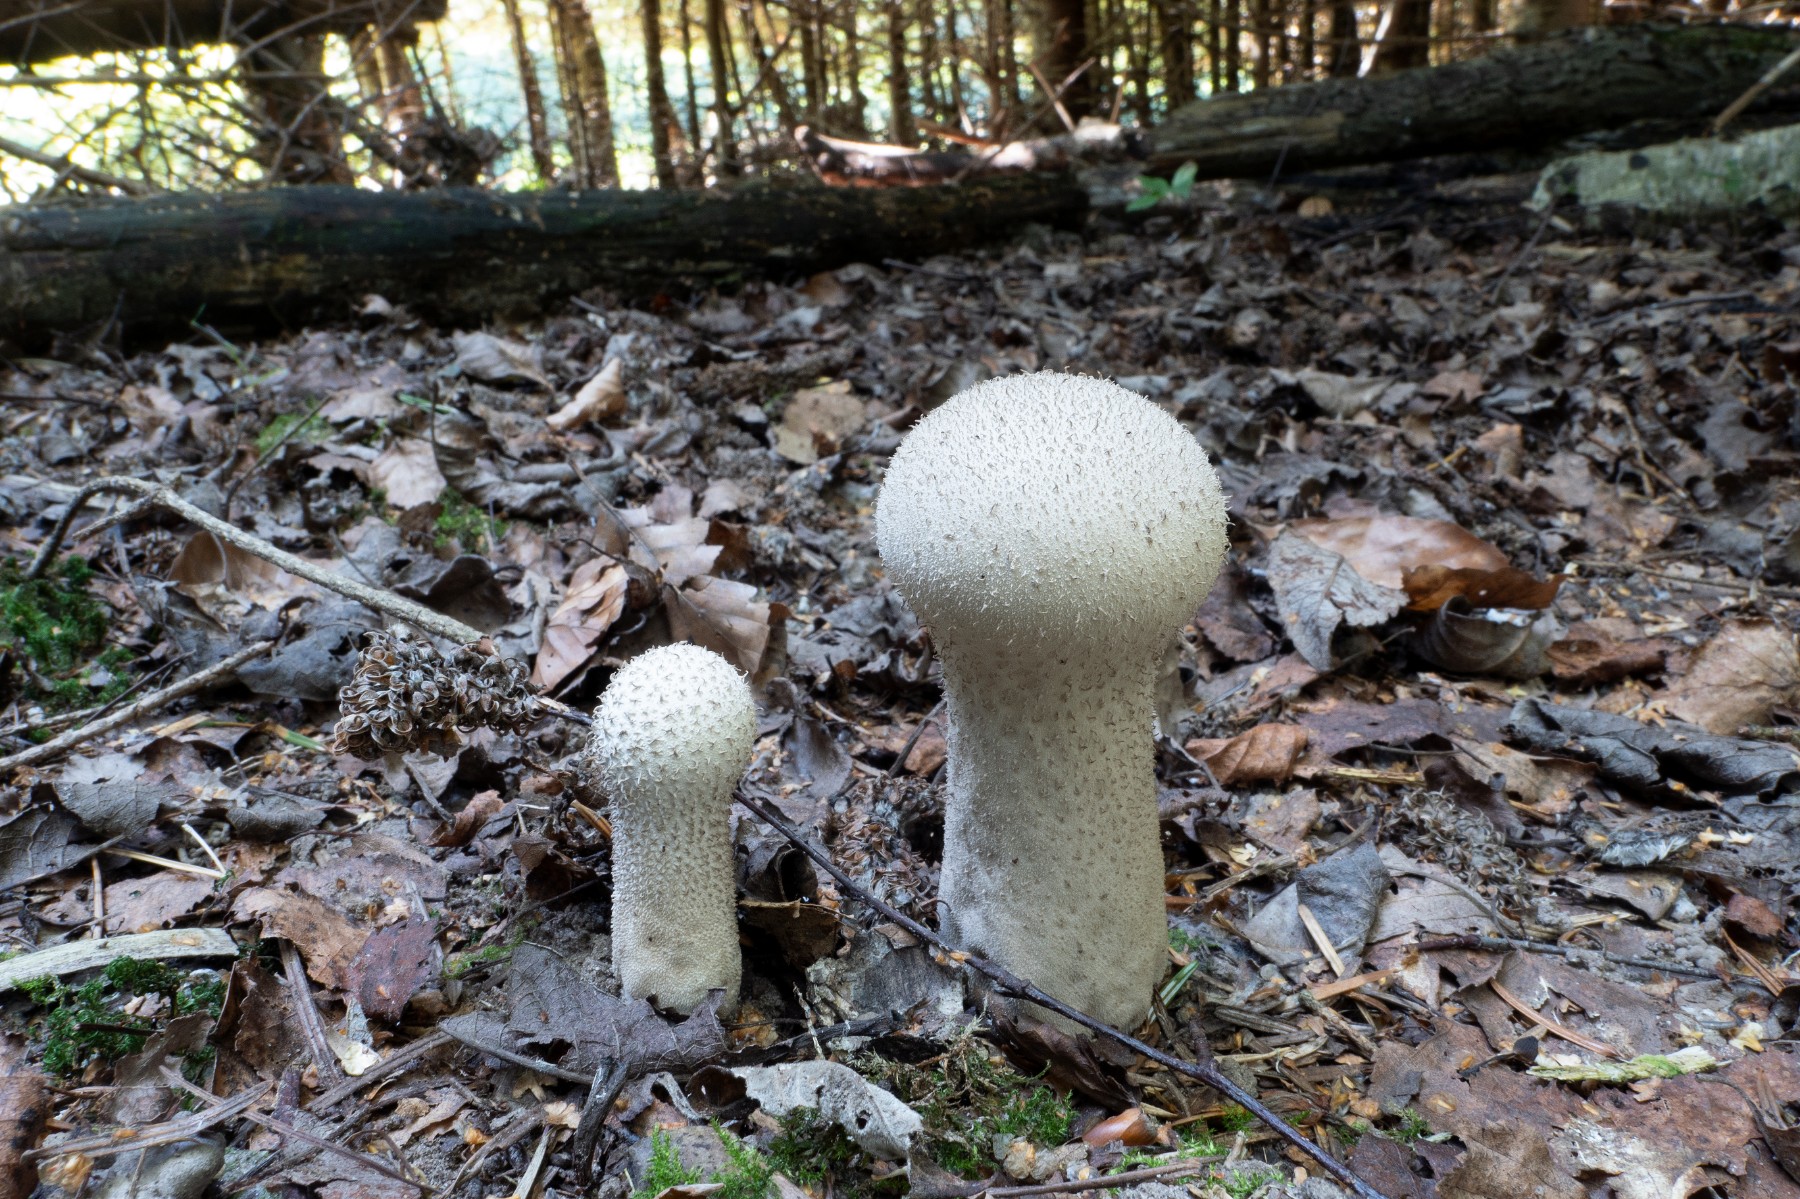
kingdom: Fungi
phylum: Basidiomycota
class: Agaricomycetes
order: Agaricales
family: Lycoperdaceae
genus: Lycoperdon
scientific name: Lycoperdon excipuliforme
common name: højstokket støvbold
